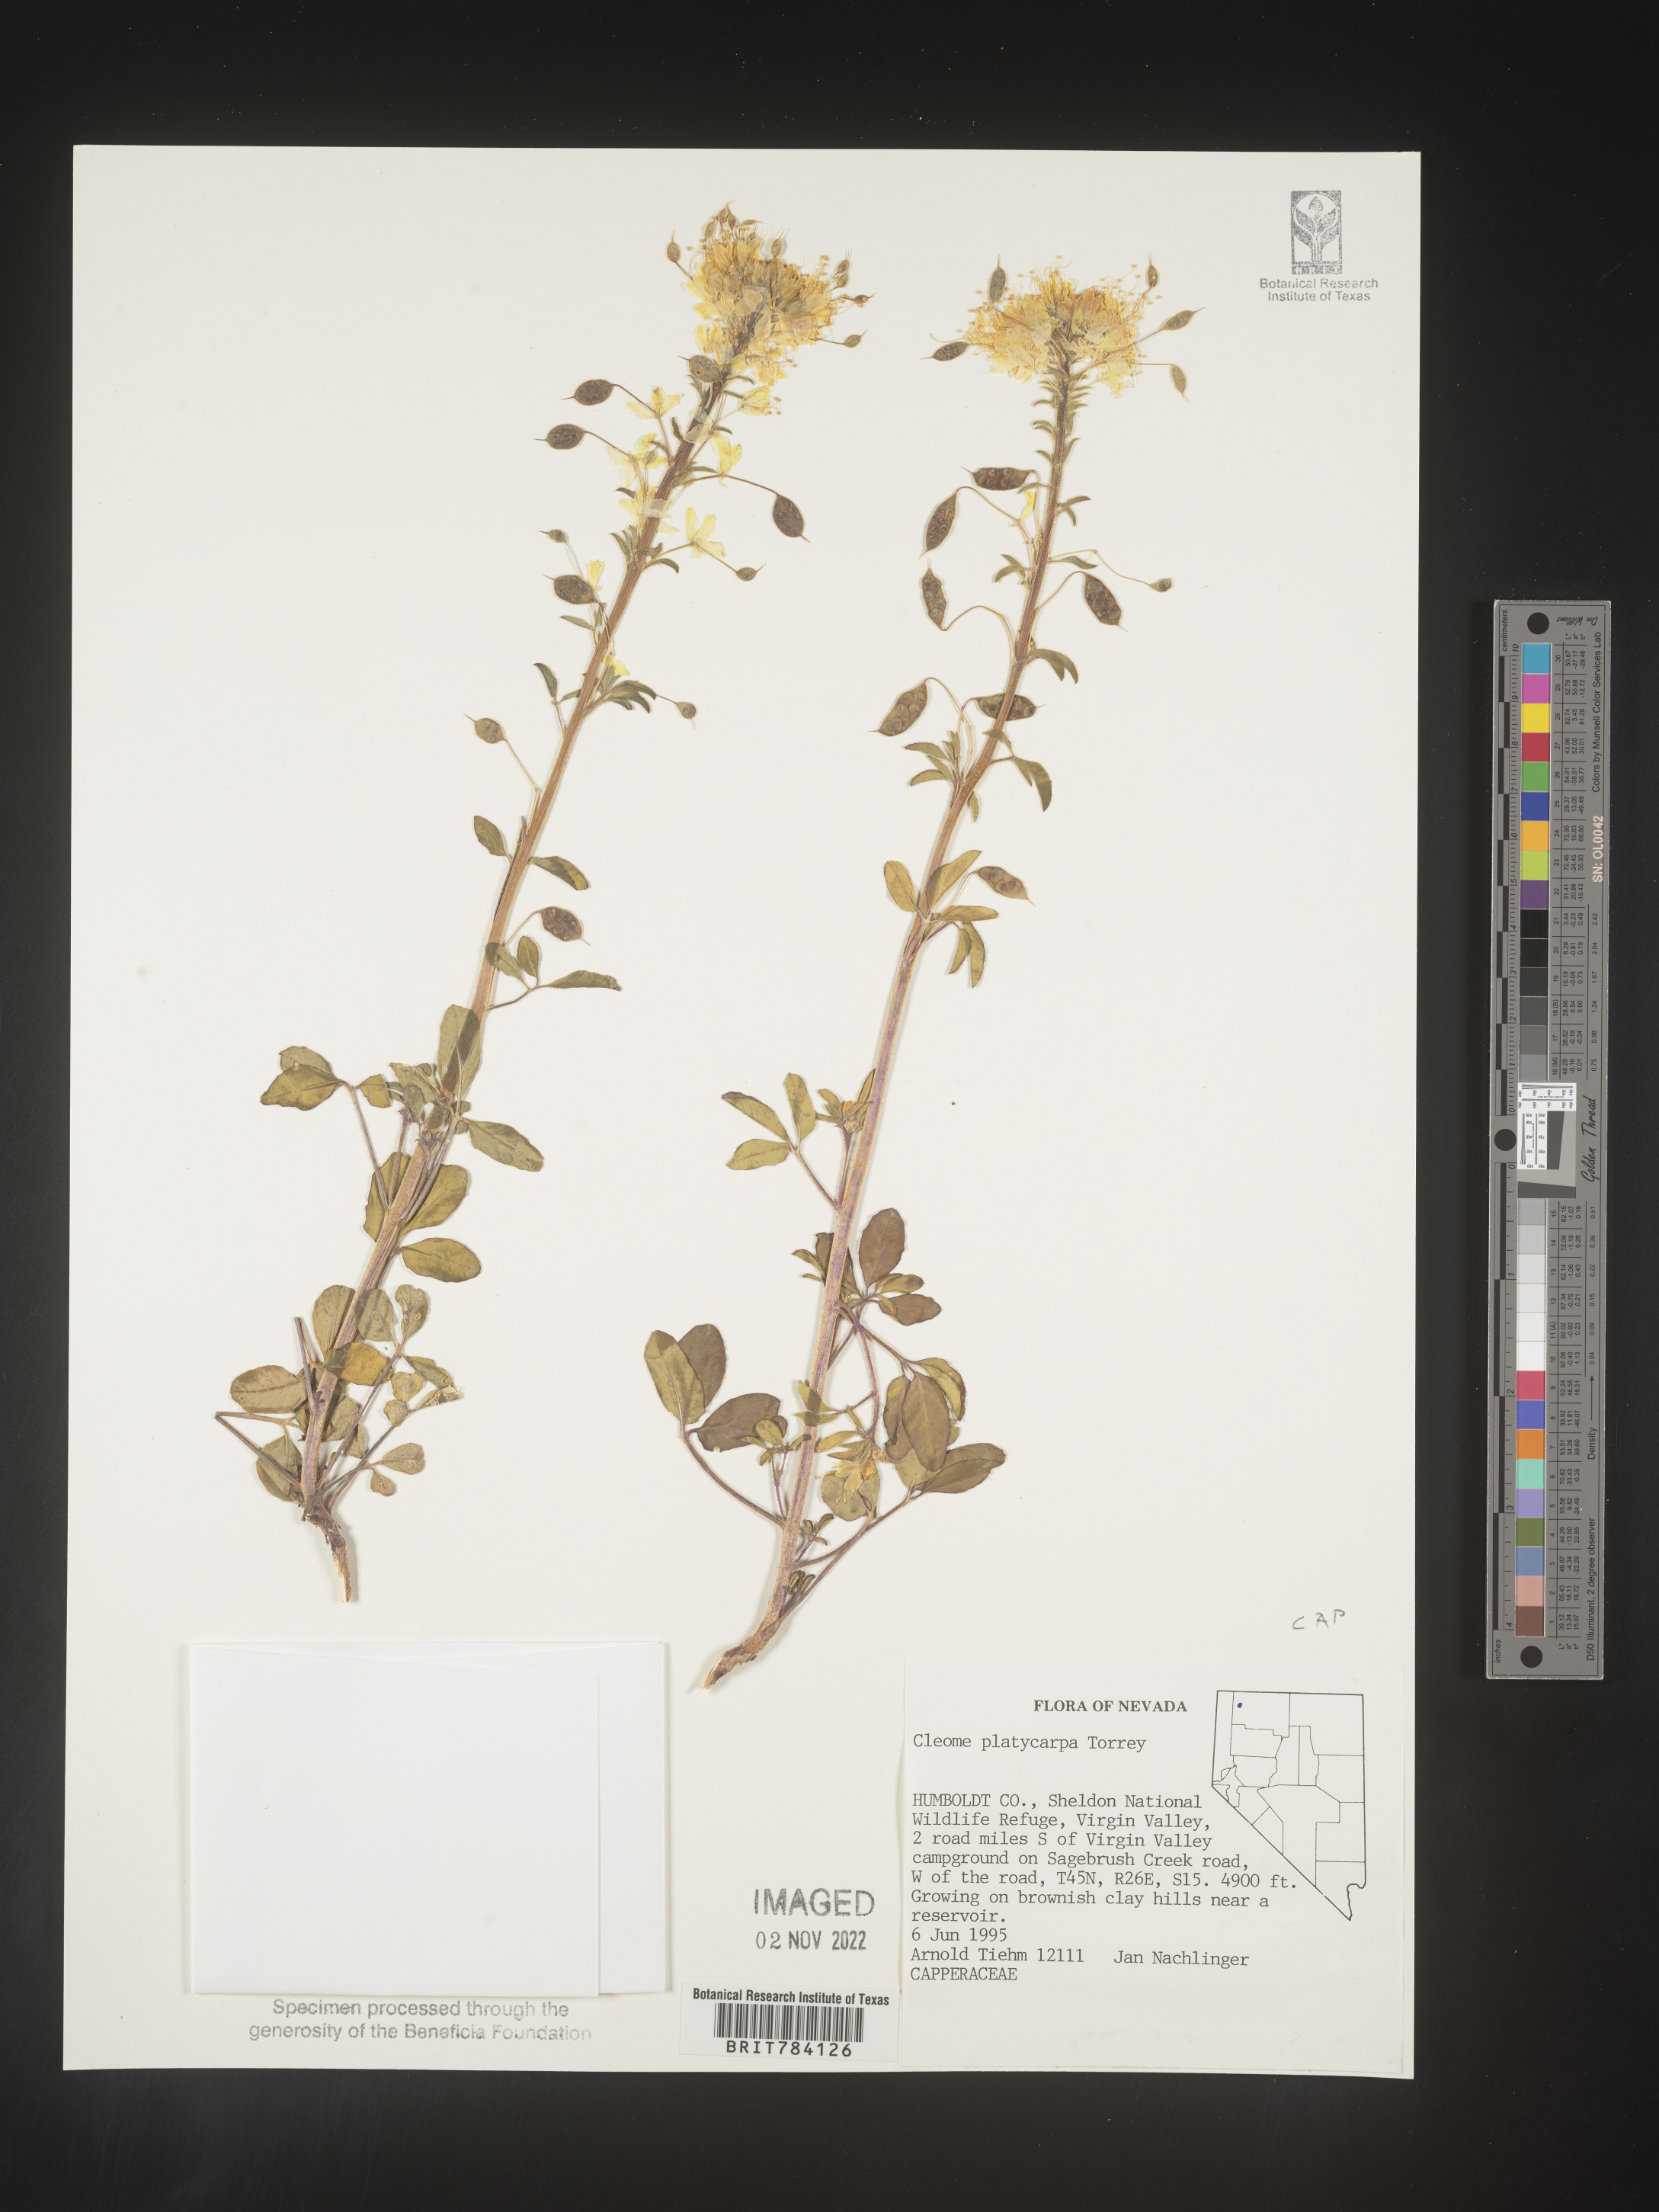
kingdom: Plantae
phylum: Tracheophyta
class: Magnoliopsida
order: Brassicales
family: Cleomaceae
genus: Cleome
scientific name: Cleome
